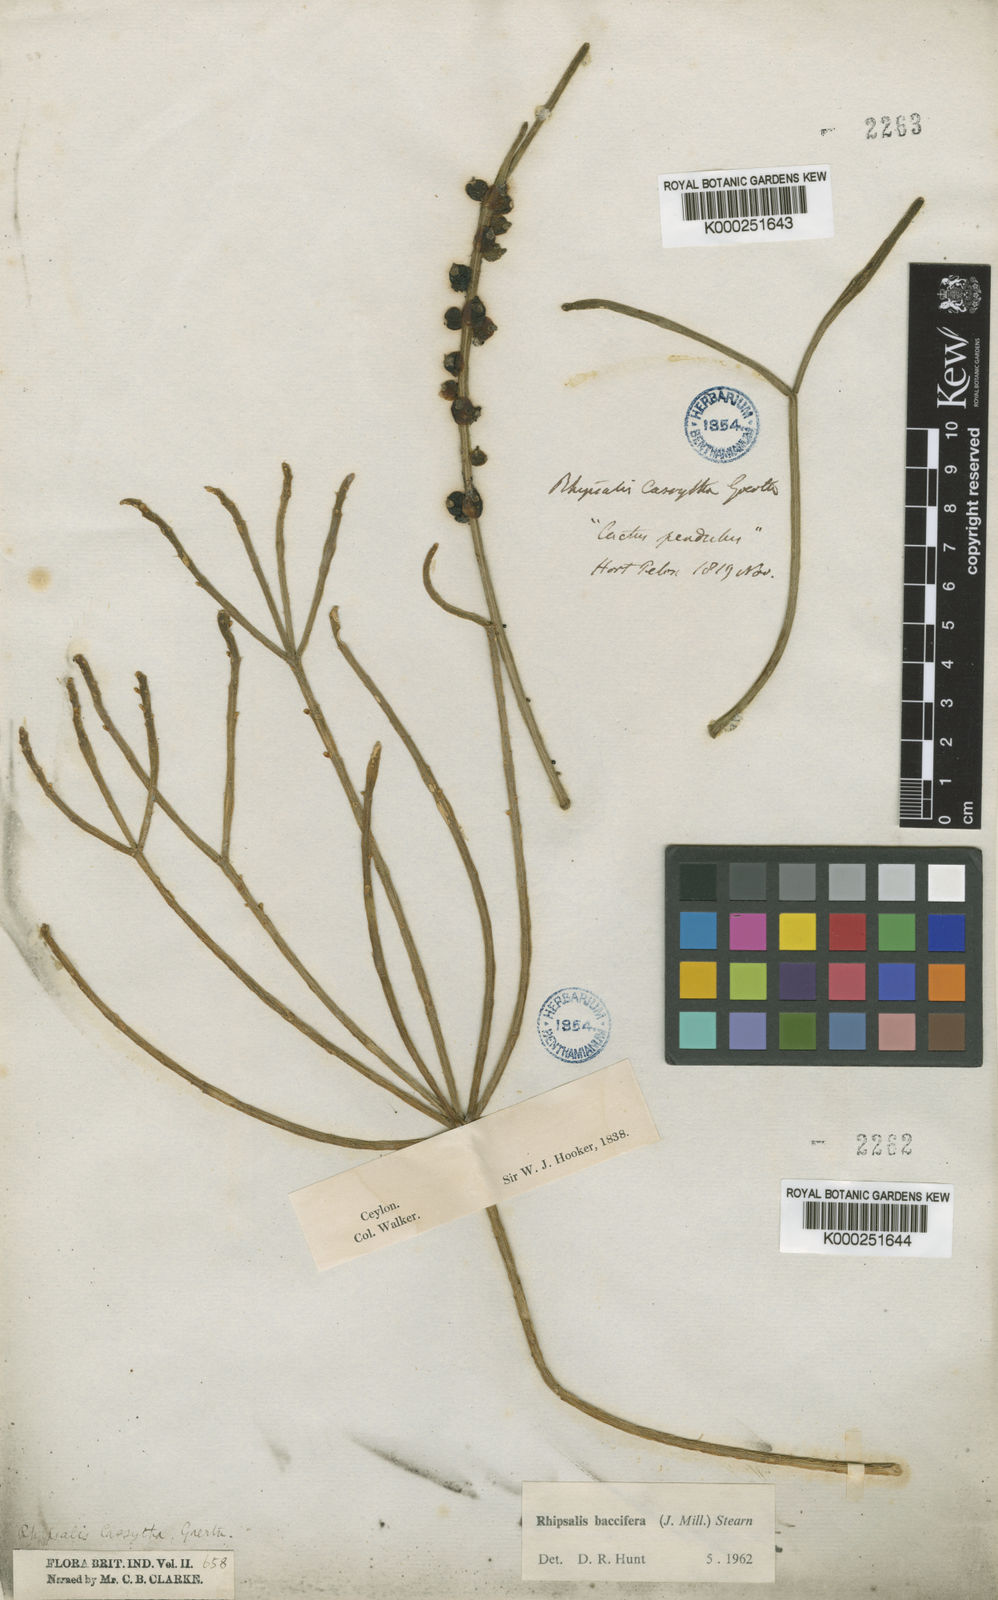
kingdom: Plantae
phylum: Tracheophyta
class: Magnoliopsida
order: Caryophyllales
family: Cactaceae
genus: Rhipsalis
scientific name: Rhipsalis baccifera
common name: Mistletoe cactus
